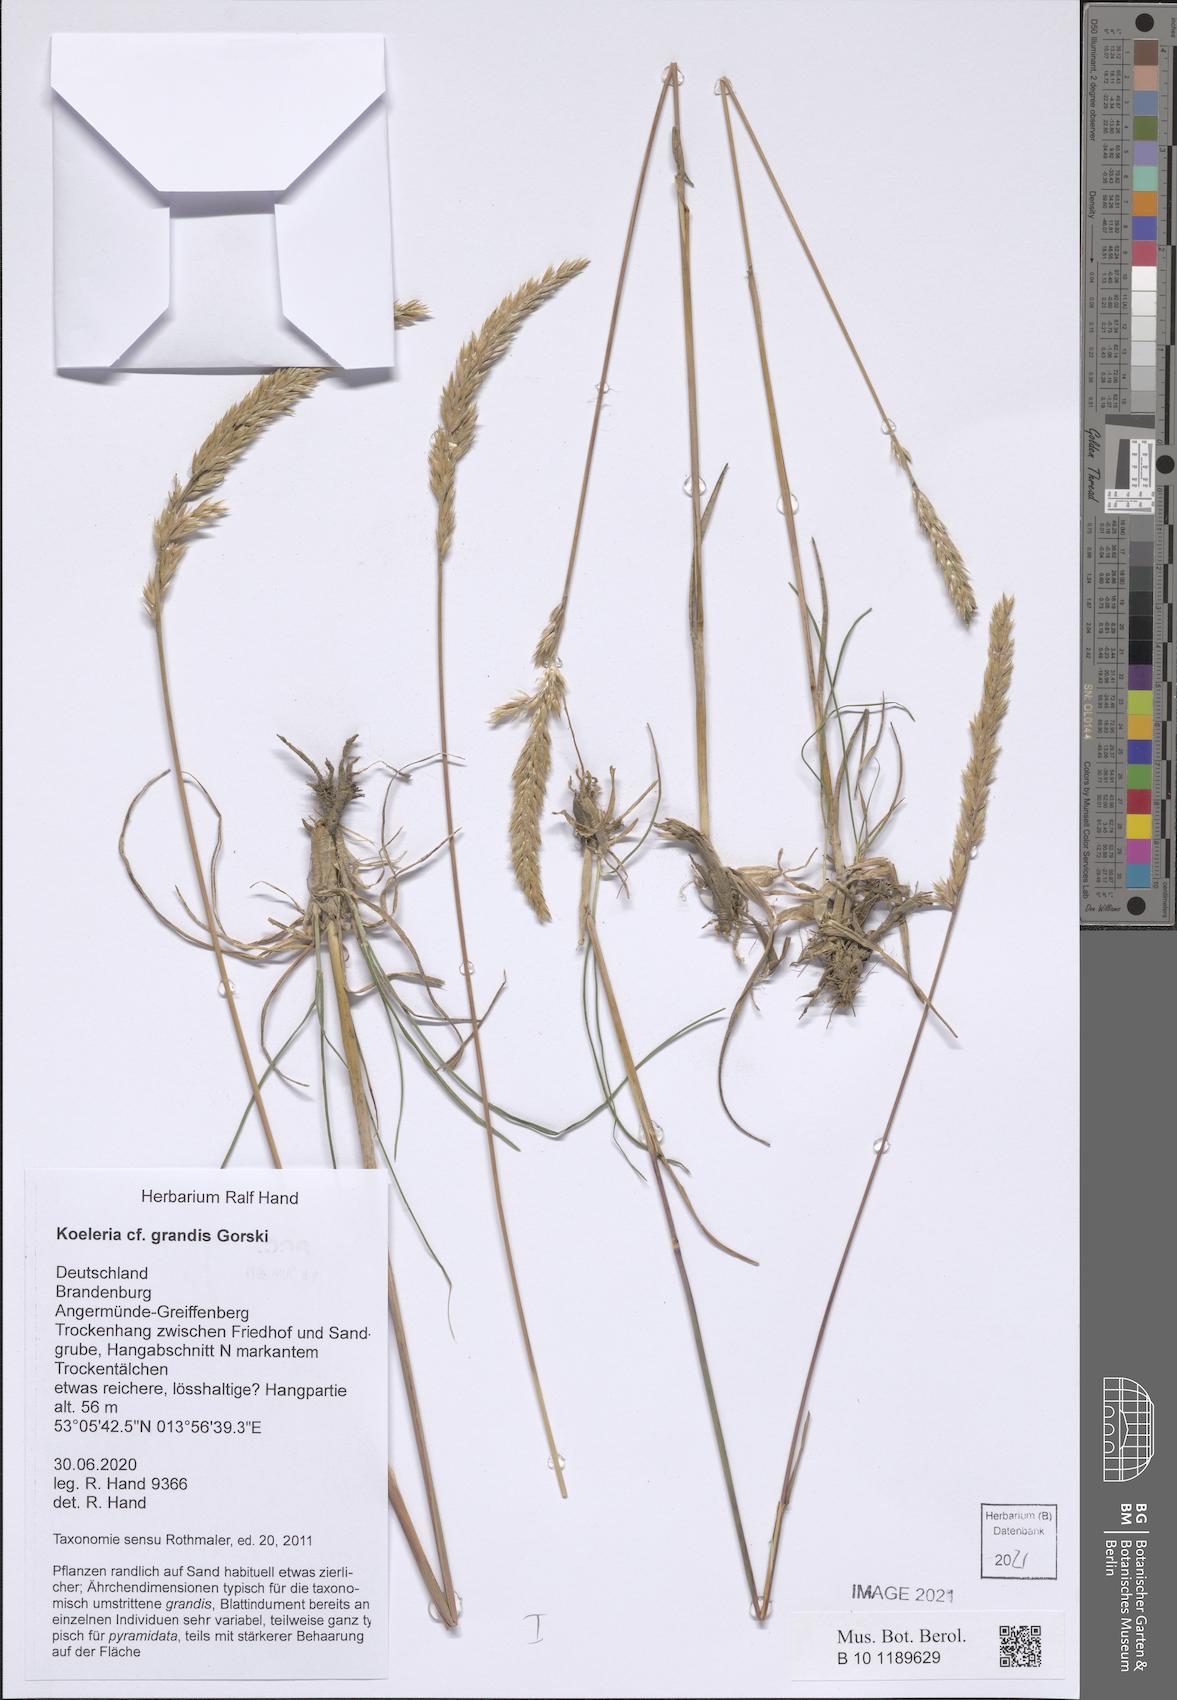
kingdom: Plantae
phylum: Tracheophyta
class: Liliopsida
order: Poales
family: Poaceae
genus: Koeleria
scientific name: Koeleria pyramidata
